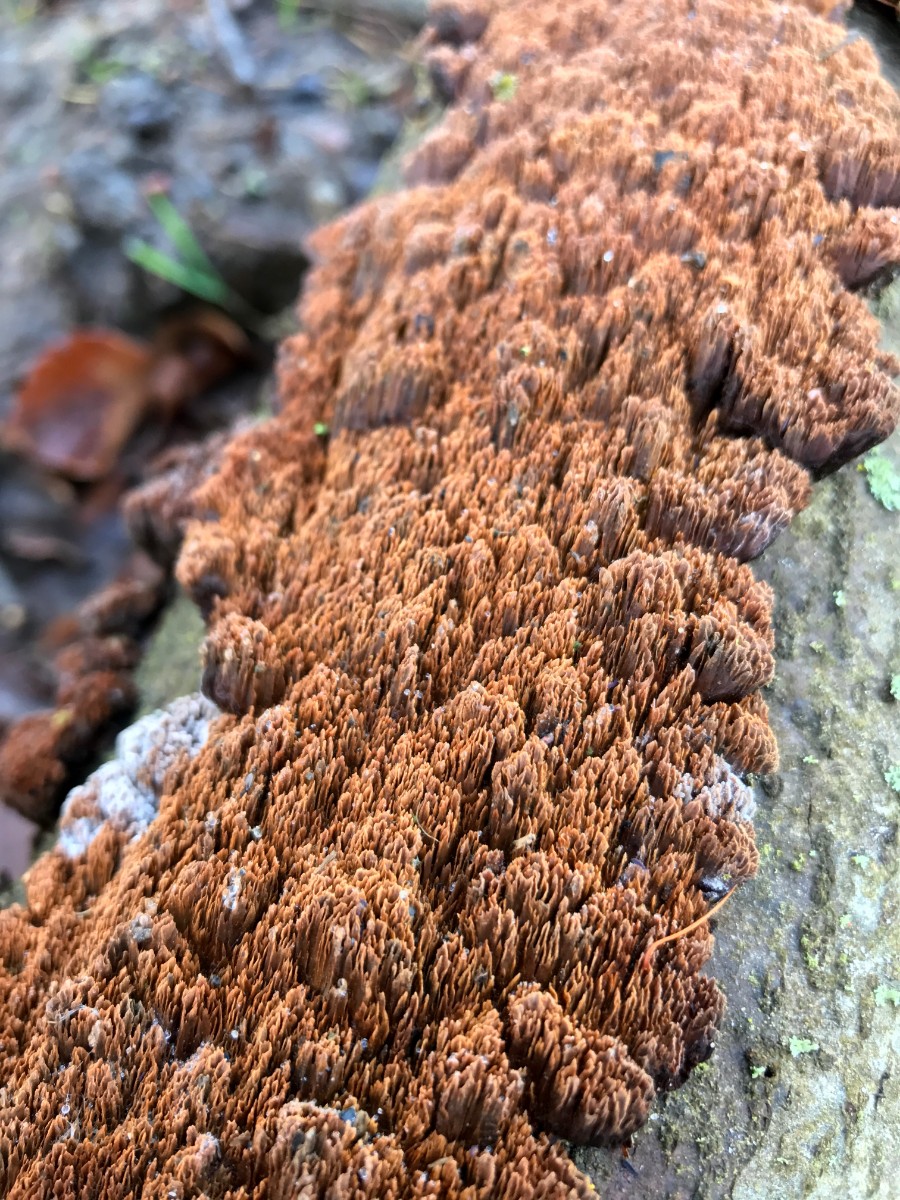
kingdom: Fungi
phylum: Basidiomycota
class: Agaricomycetes
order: Hymenochaetales
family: Hymenochaetaceae
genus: Mensularia
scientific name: Mensularia nodulosa
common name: bøge-spejlporesvamp
